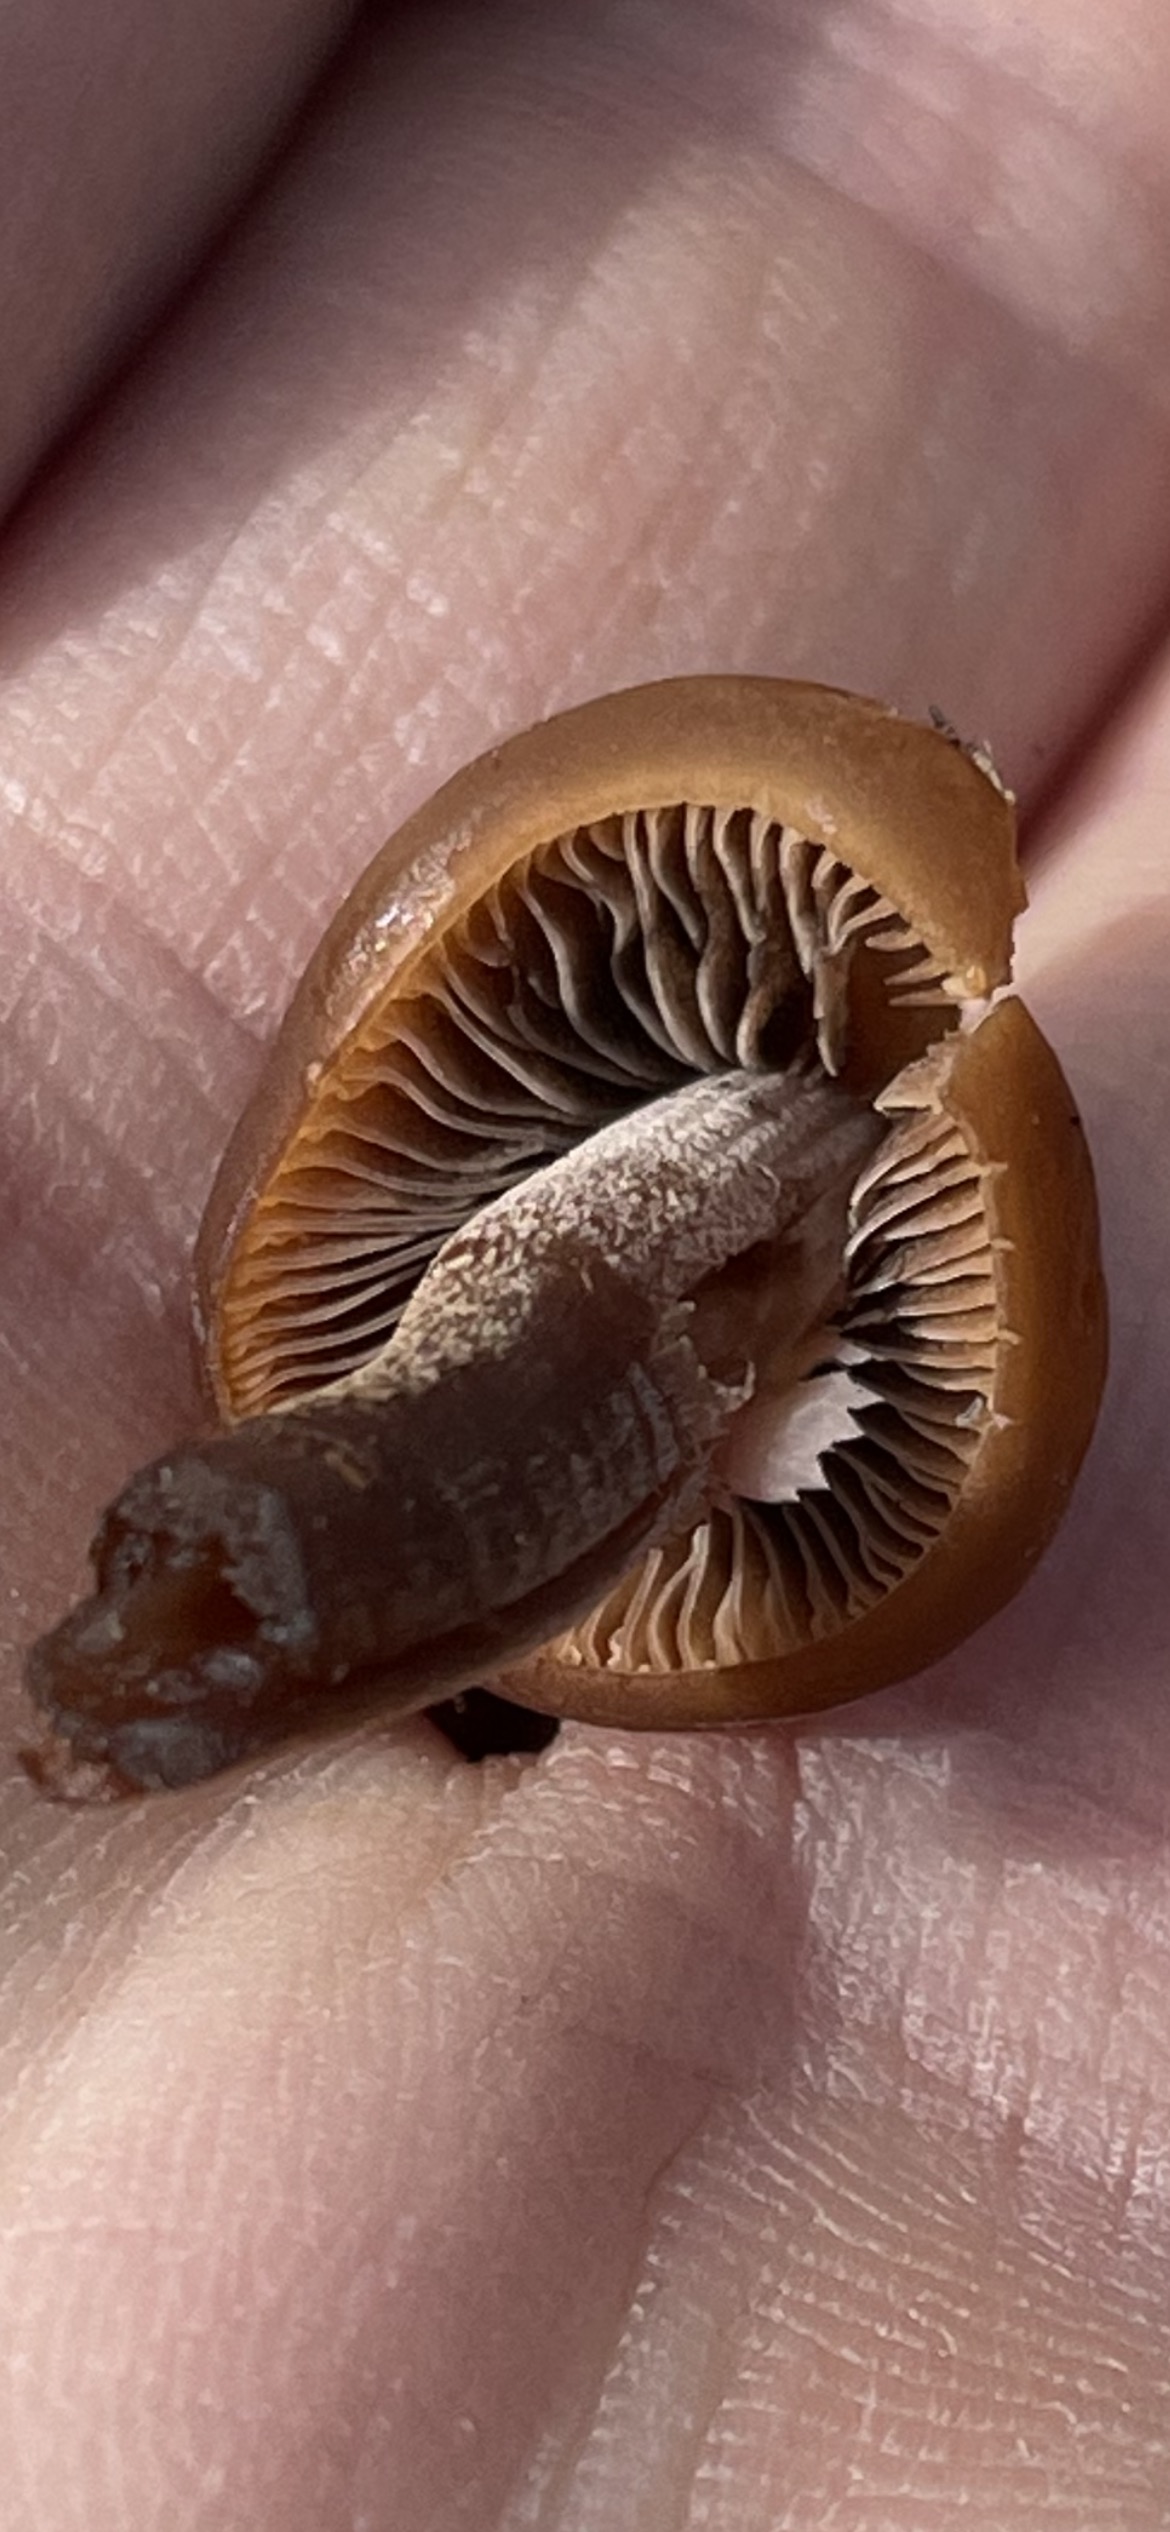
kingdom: Fungi
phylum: Basidiomycota
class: Agaricomycetes
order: Agaricales
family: Bolbitiaceae
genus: Panaeolus
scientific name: Panaeolus
